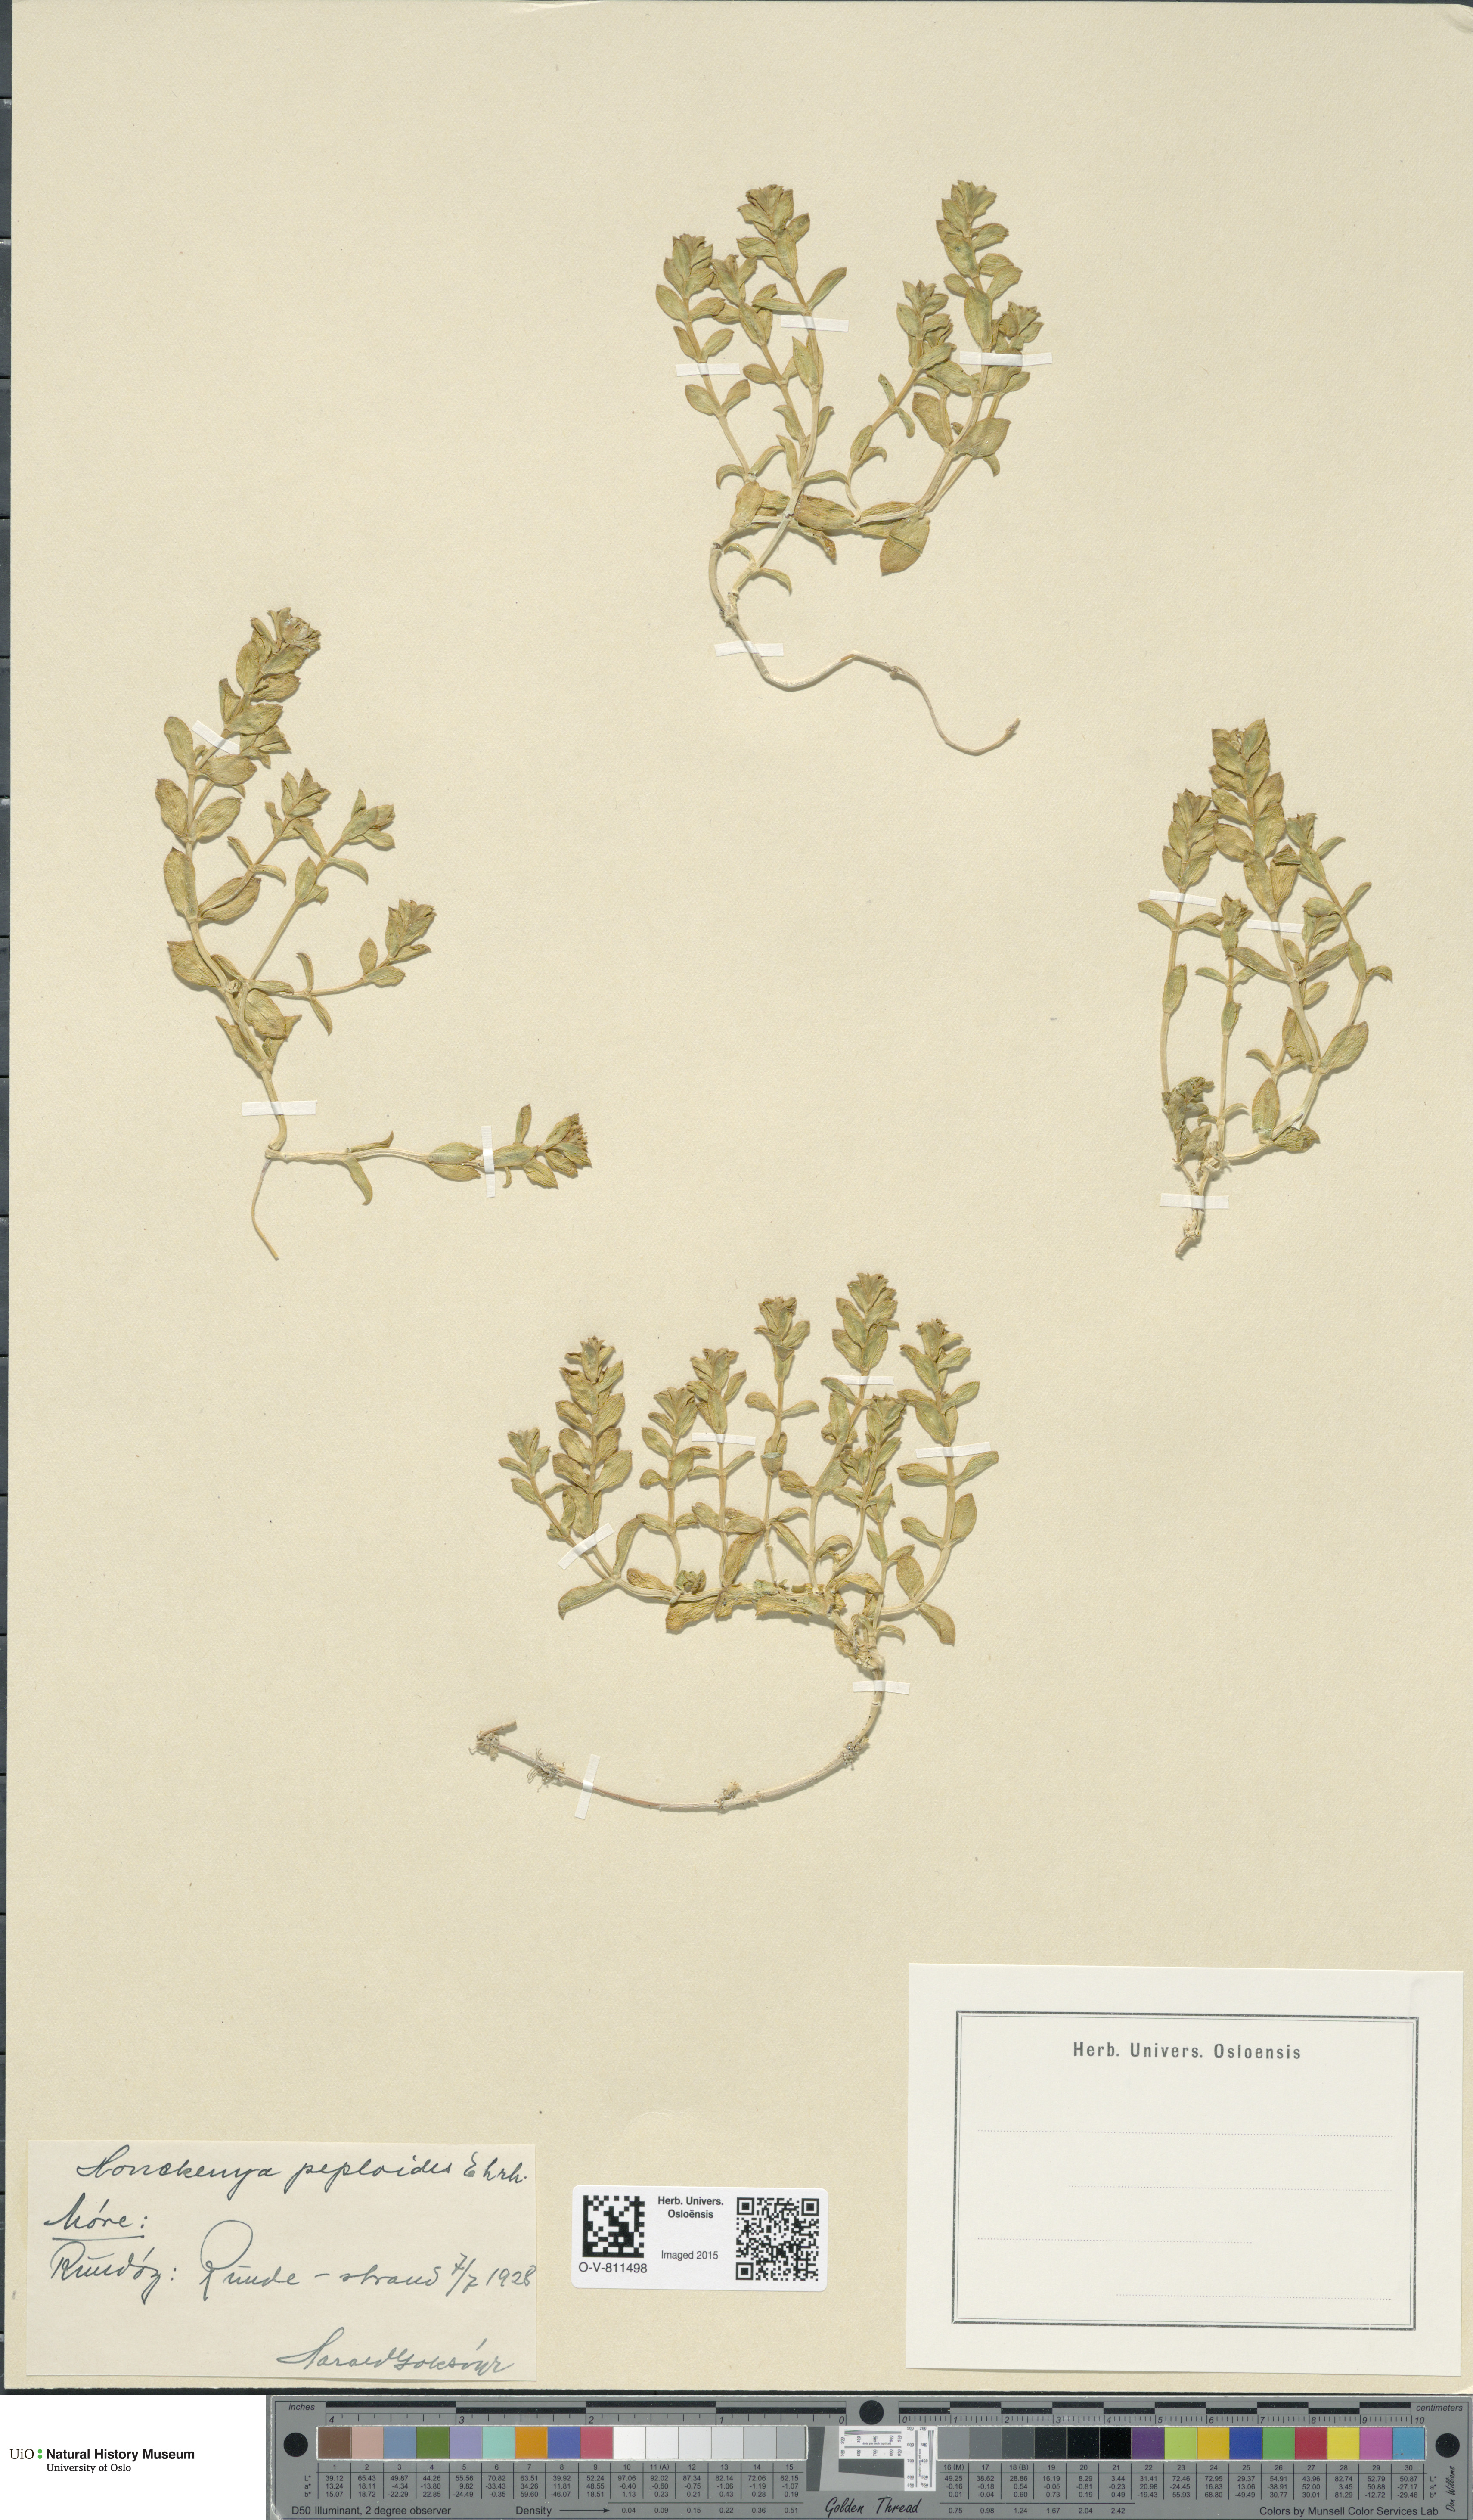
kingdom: Plantae
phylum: Tracheophyta
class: Magnoliopsida
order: Caryophyllales
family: Caryophyllaceae
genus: Honckenya
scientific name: Honckenya peploides
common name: Sea sandwort
